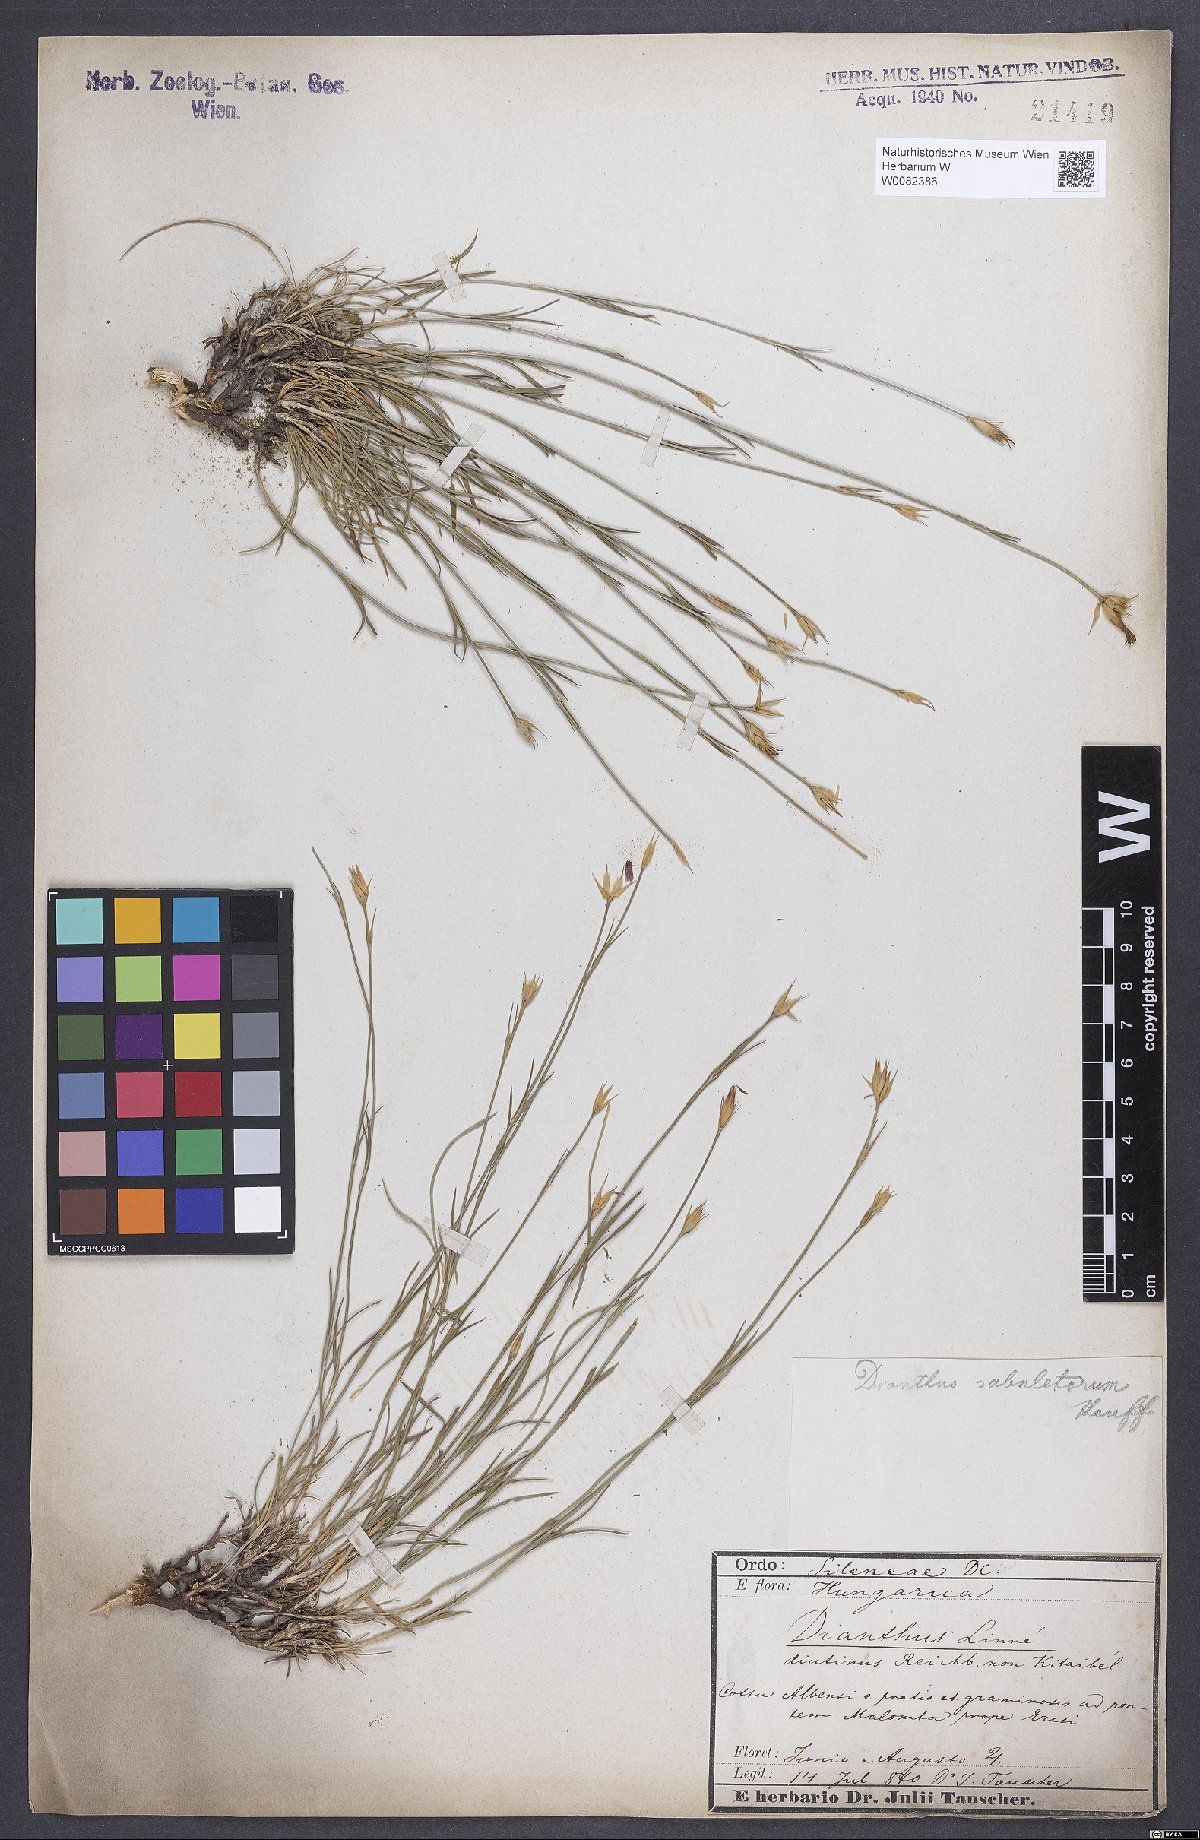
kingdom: Plantae
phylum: Tracheophyta
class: Magnoliopsida
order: Caryophyllales
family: Caryophyllaceae
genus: Dianthus
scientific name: Dianthus carthusianorum
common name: Carthusian pink
